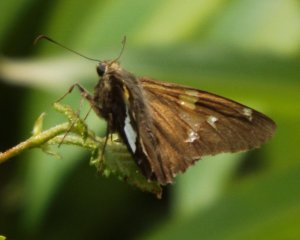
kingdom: Animalia
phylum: Arthropoda
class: Insecta
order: Lepidoptera
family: Hesperiidae
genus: Epargyreus
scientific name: Epargyreus clarus
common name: Silver-spotted Skipper
